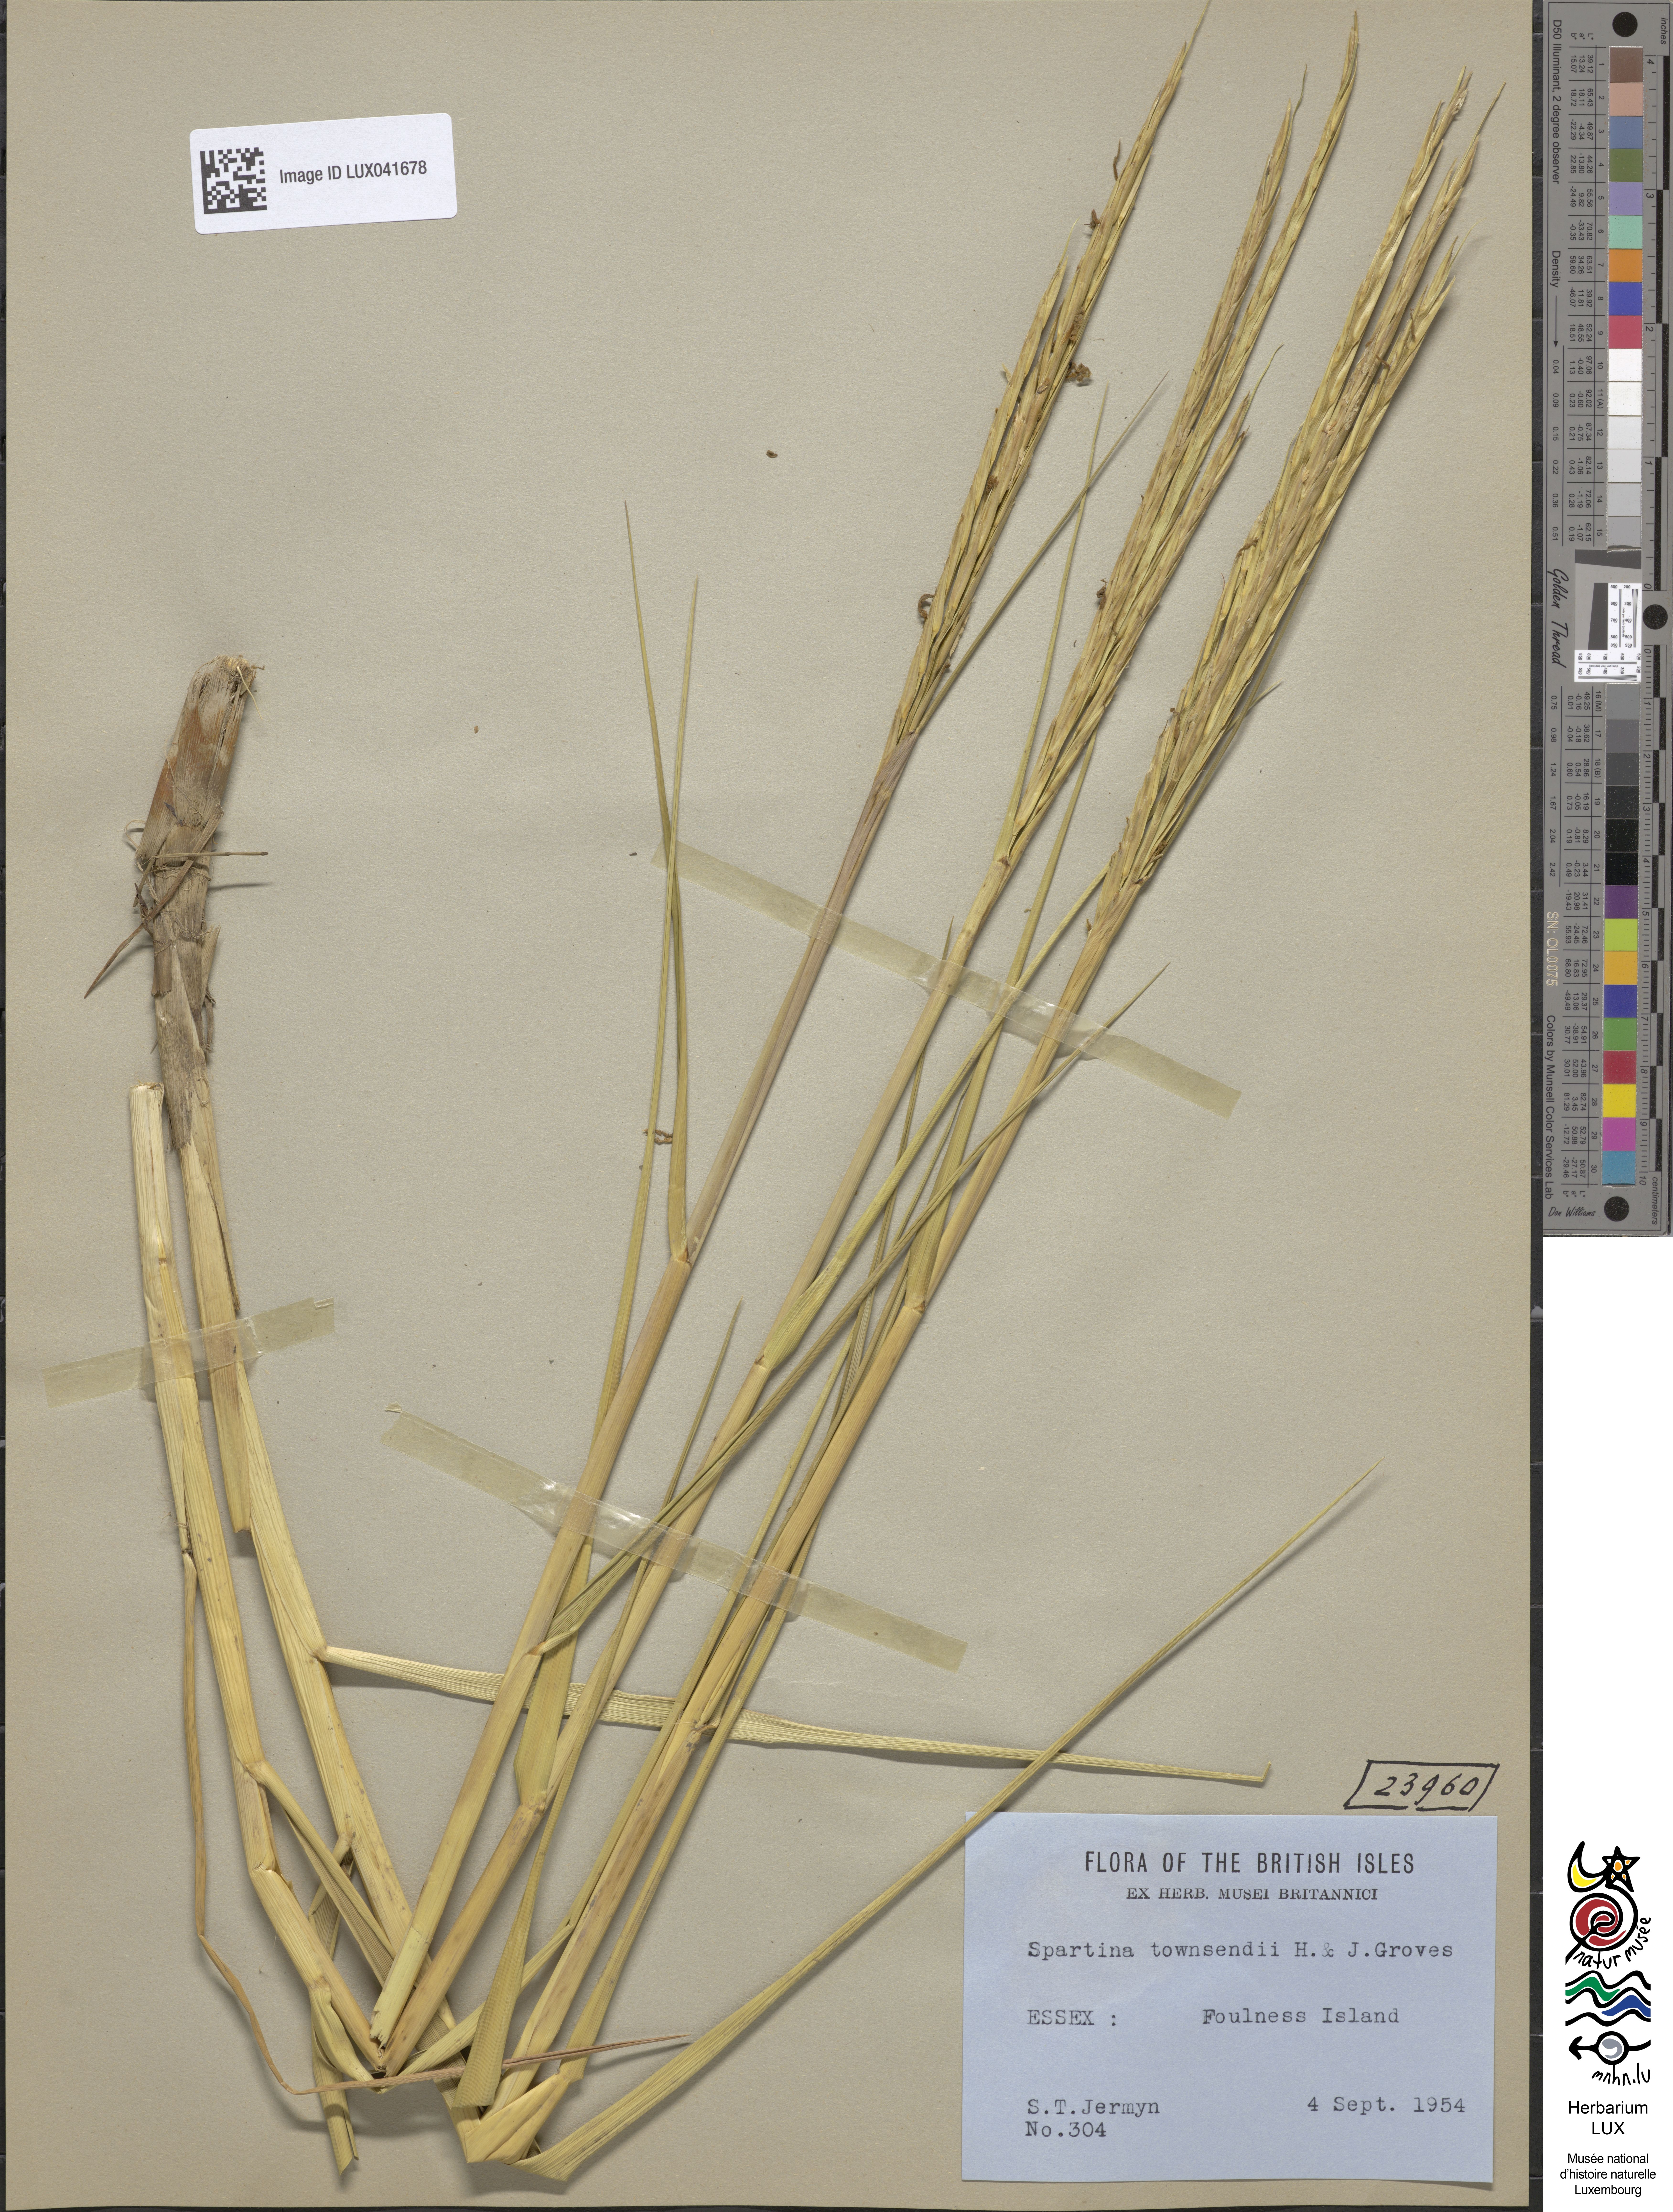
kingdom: Plantae
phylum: Tracheophyta
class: Liliopsida
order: Poales
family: Poaceae
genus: Sporobolus
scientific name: Sporobolus townsendii
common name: Townsend's cordgrass
